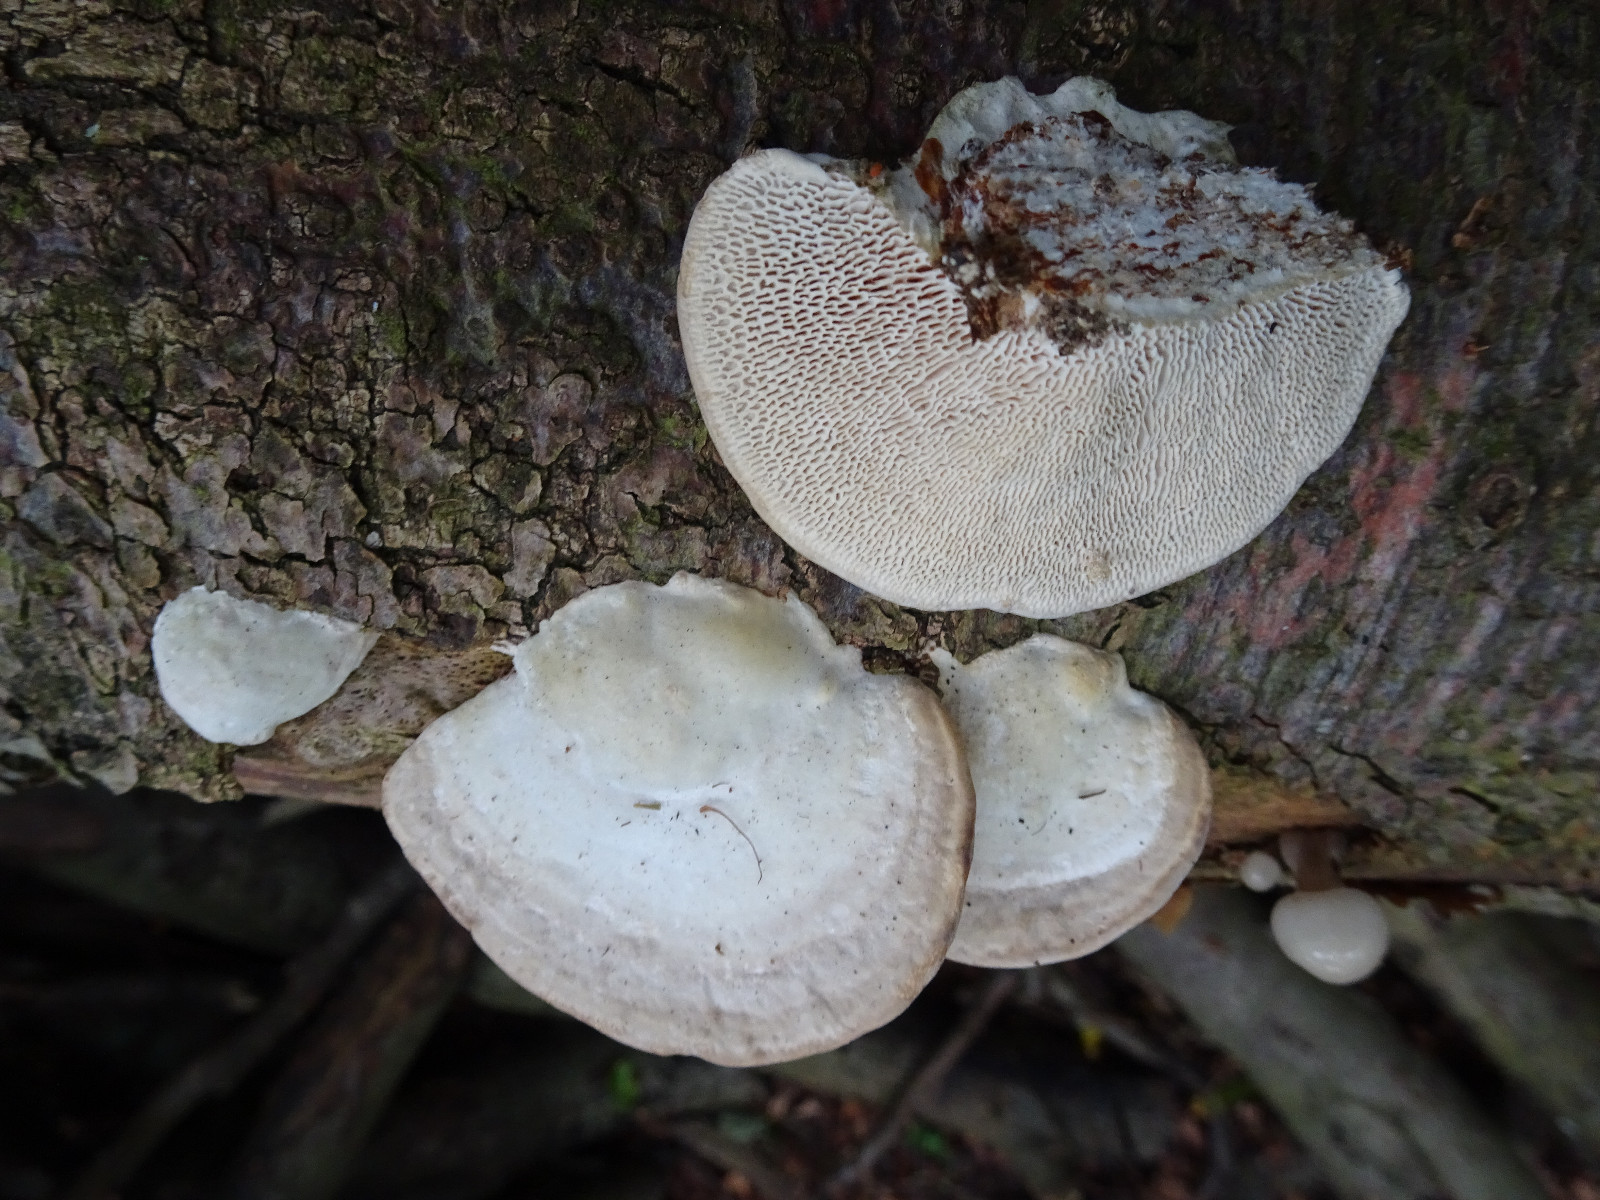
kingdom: Fungi
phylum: Basidiomycota
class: Agaricomycetes
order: Polyporales
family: Polyporaceae
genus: Trametes
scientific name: Trametes gibbosa
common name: puklet læderporesvamp
